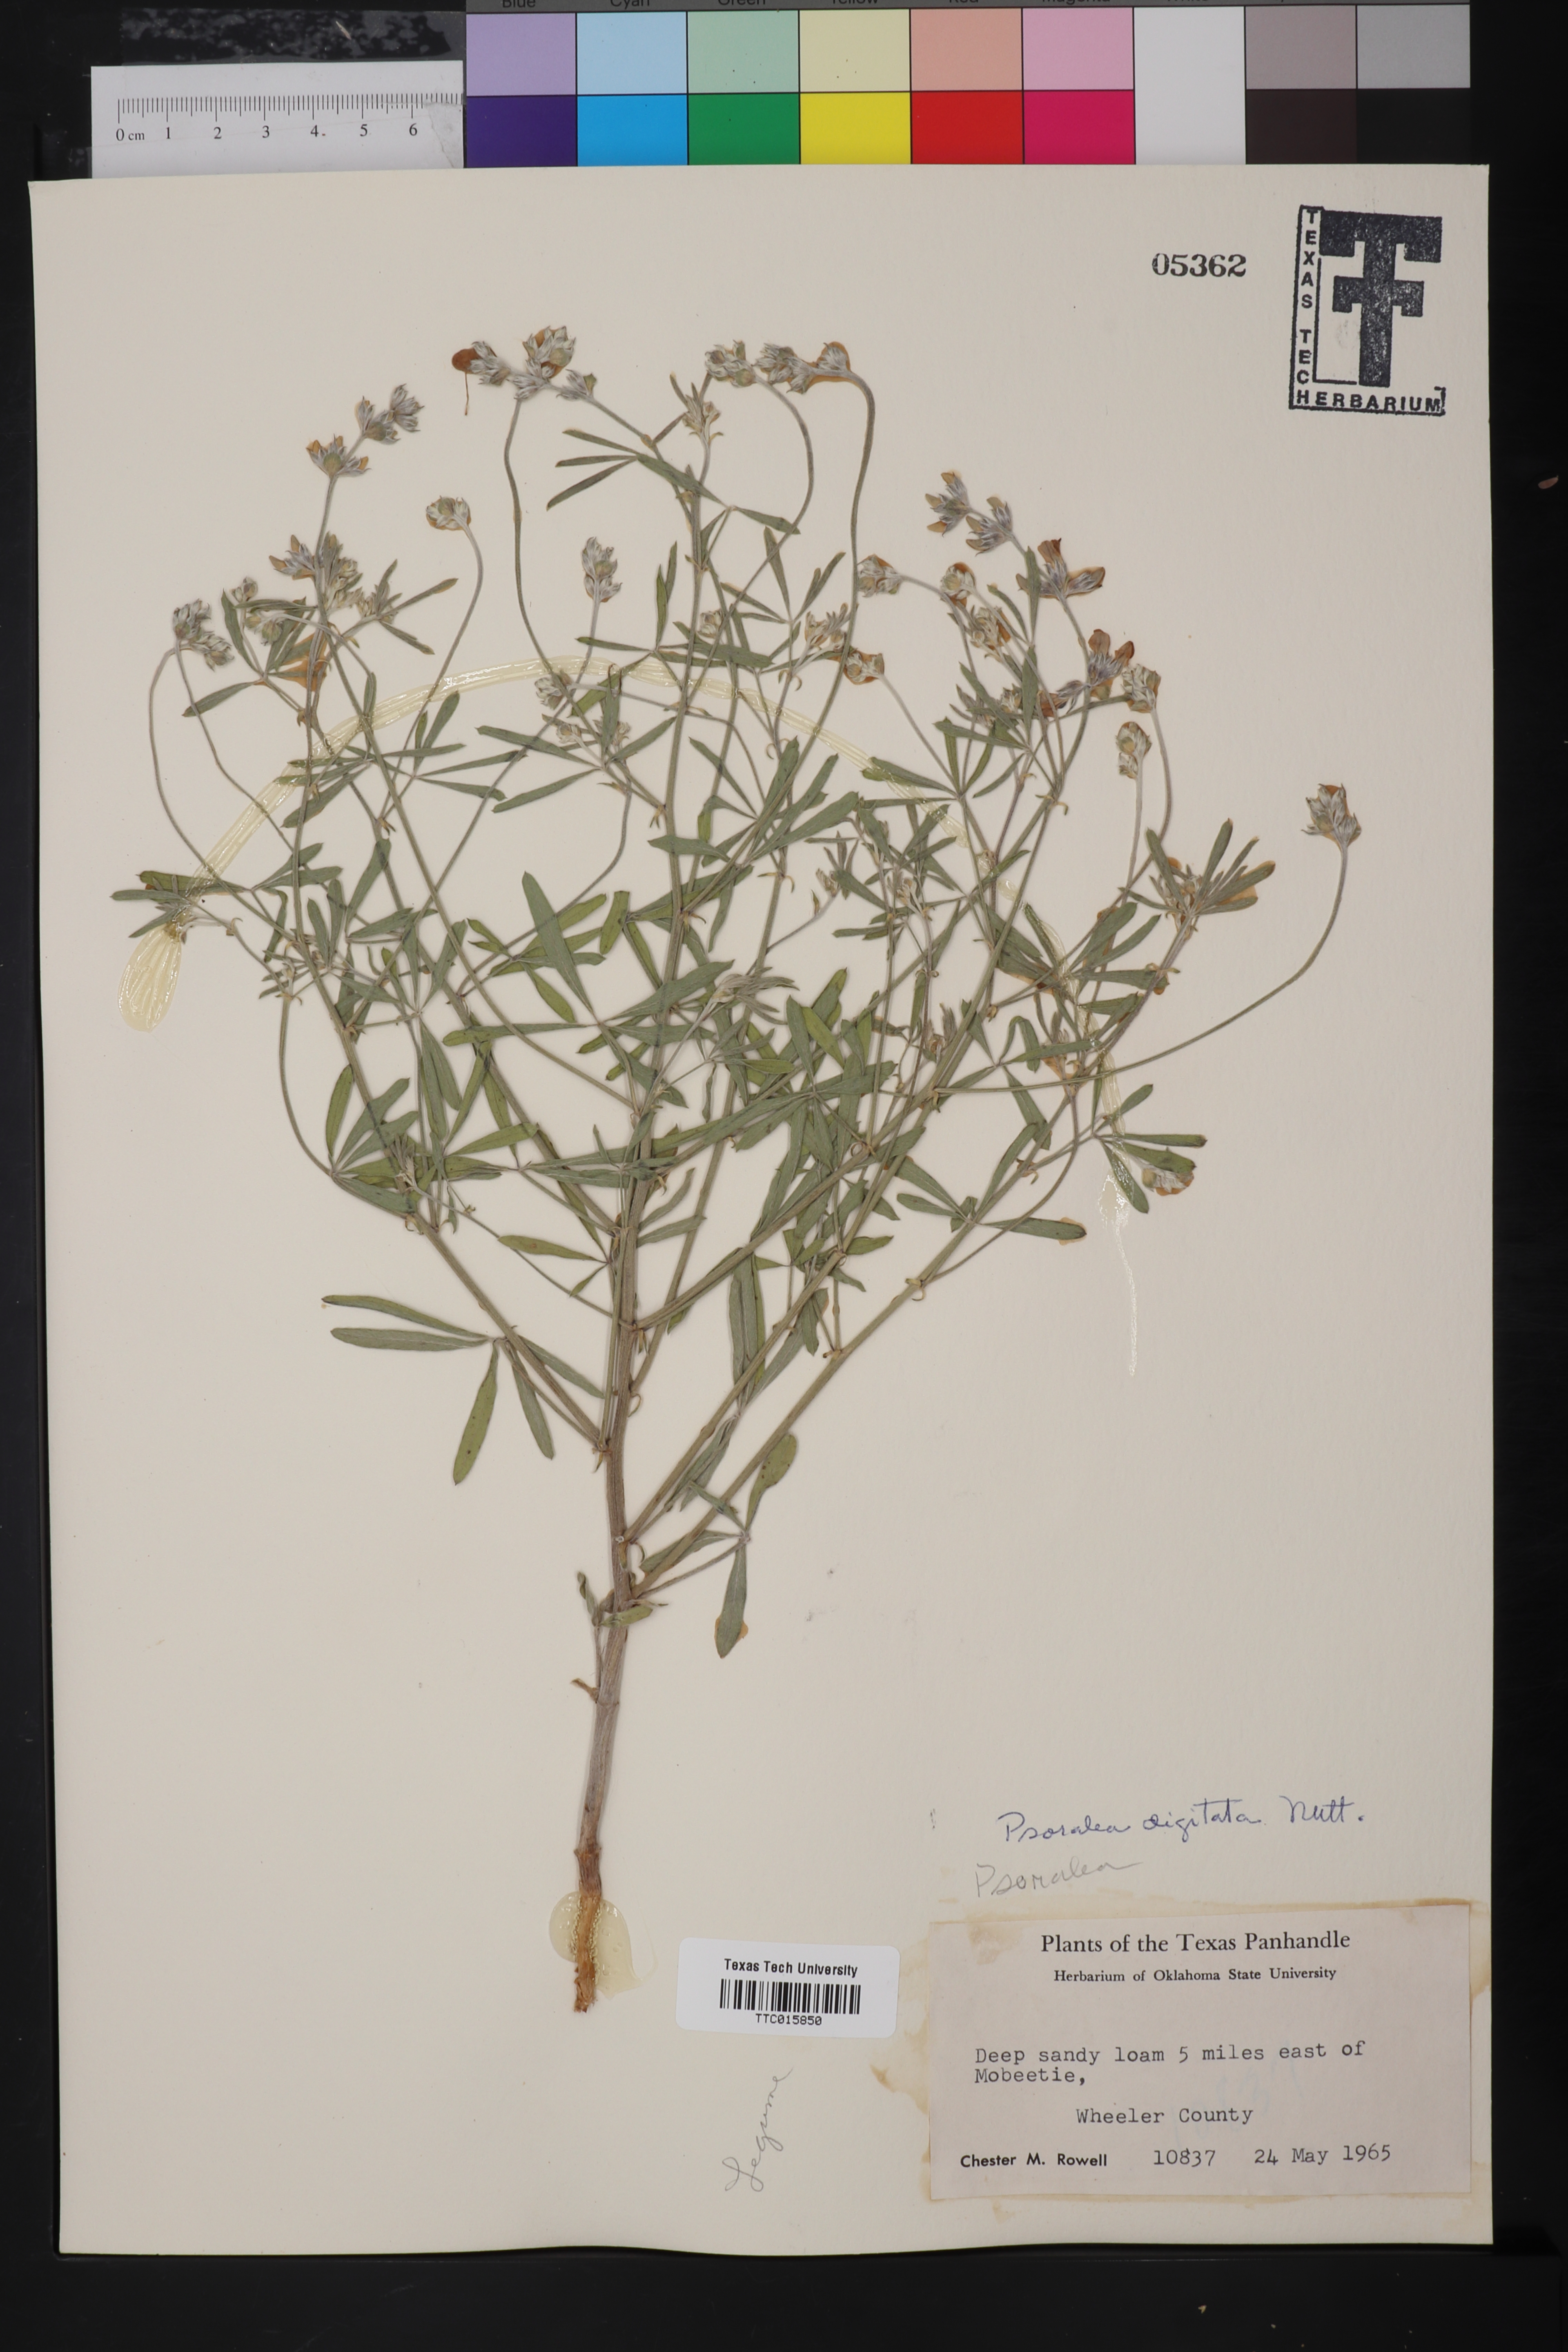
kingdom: Plantae
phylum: Tracheophyta
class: Magnoliopsida
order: Fabales
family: Fabaceae
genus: Pediomelum
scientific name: Pediomelum digitatum
